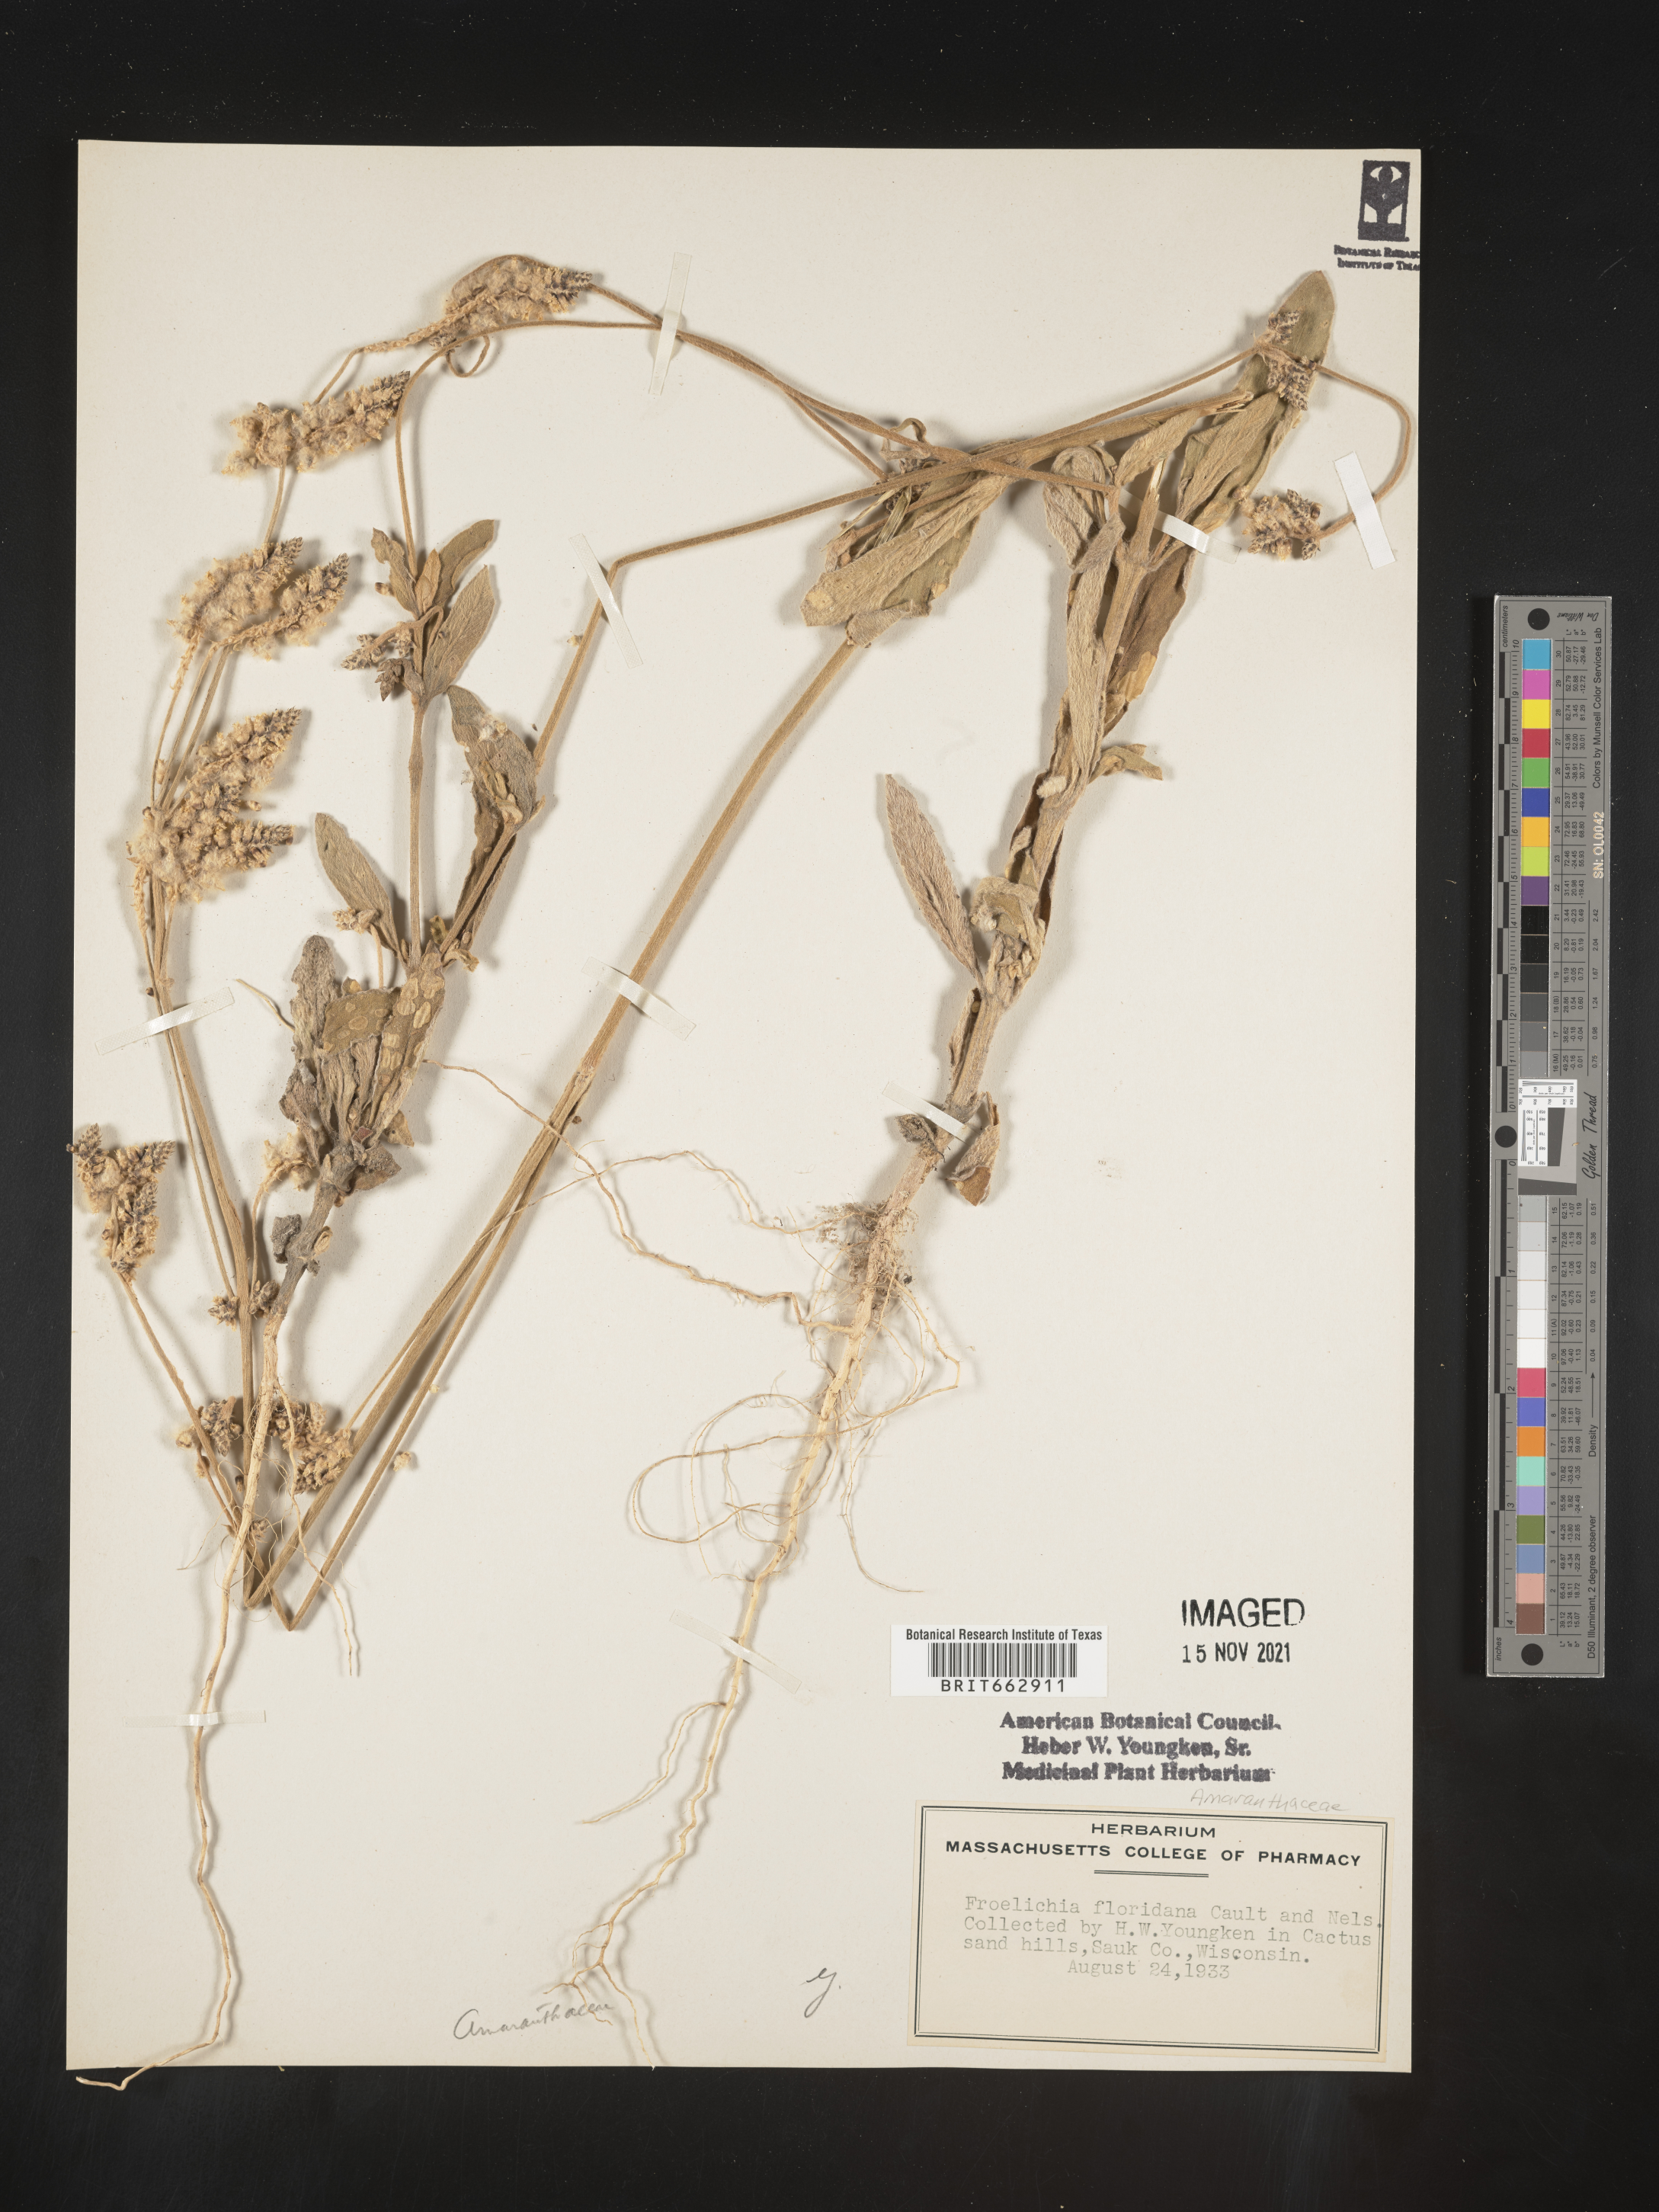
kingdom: Plantae
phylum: Tracheophyta
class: Magnoliopsida
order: Caryophyllales
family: Amaranthaceae
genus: Amaranthus
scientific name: Amaranthus
